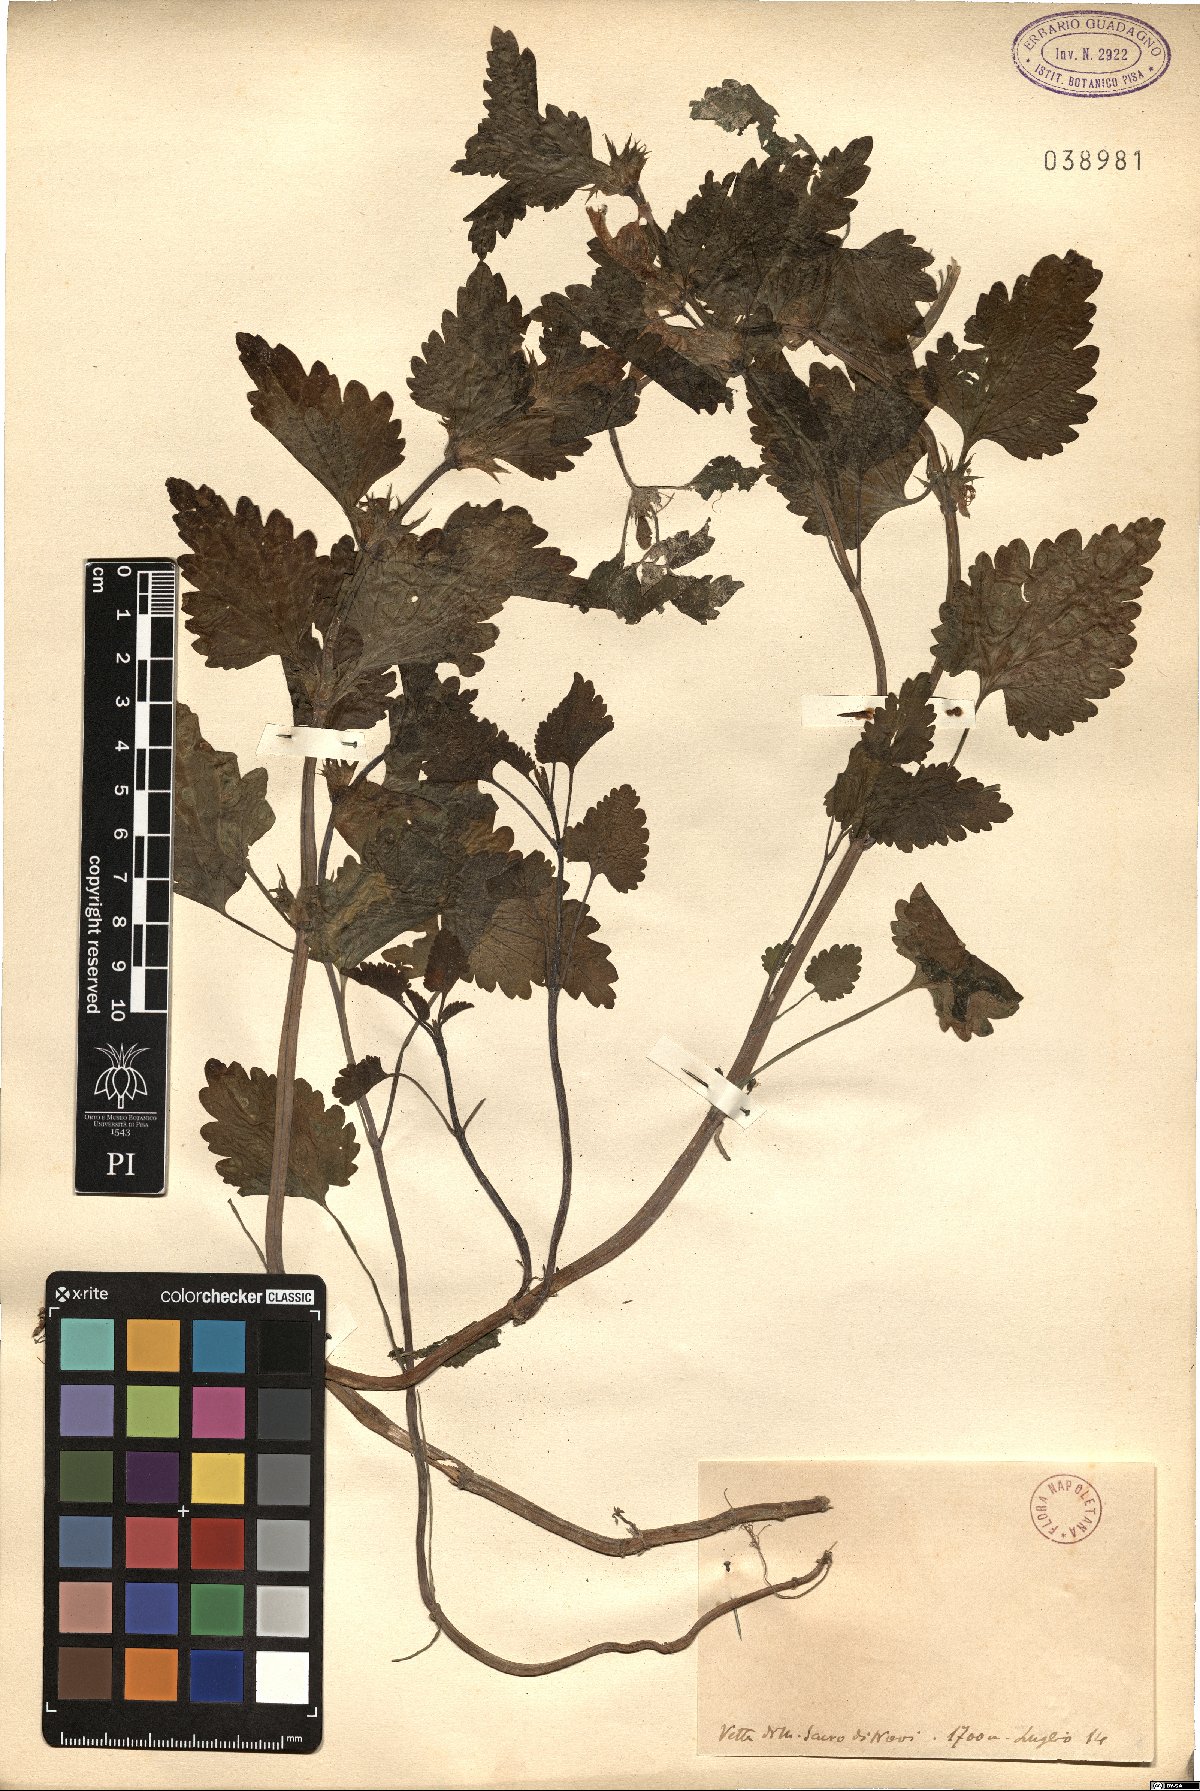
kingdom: Plantae
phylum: Tracheophyta
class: Magnoliopsida
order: Lamiales
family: Lamiaceae
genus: Lamium
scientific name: Lamium
